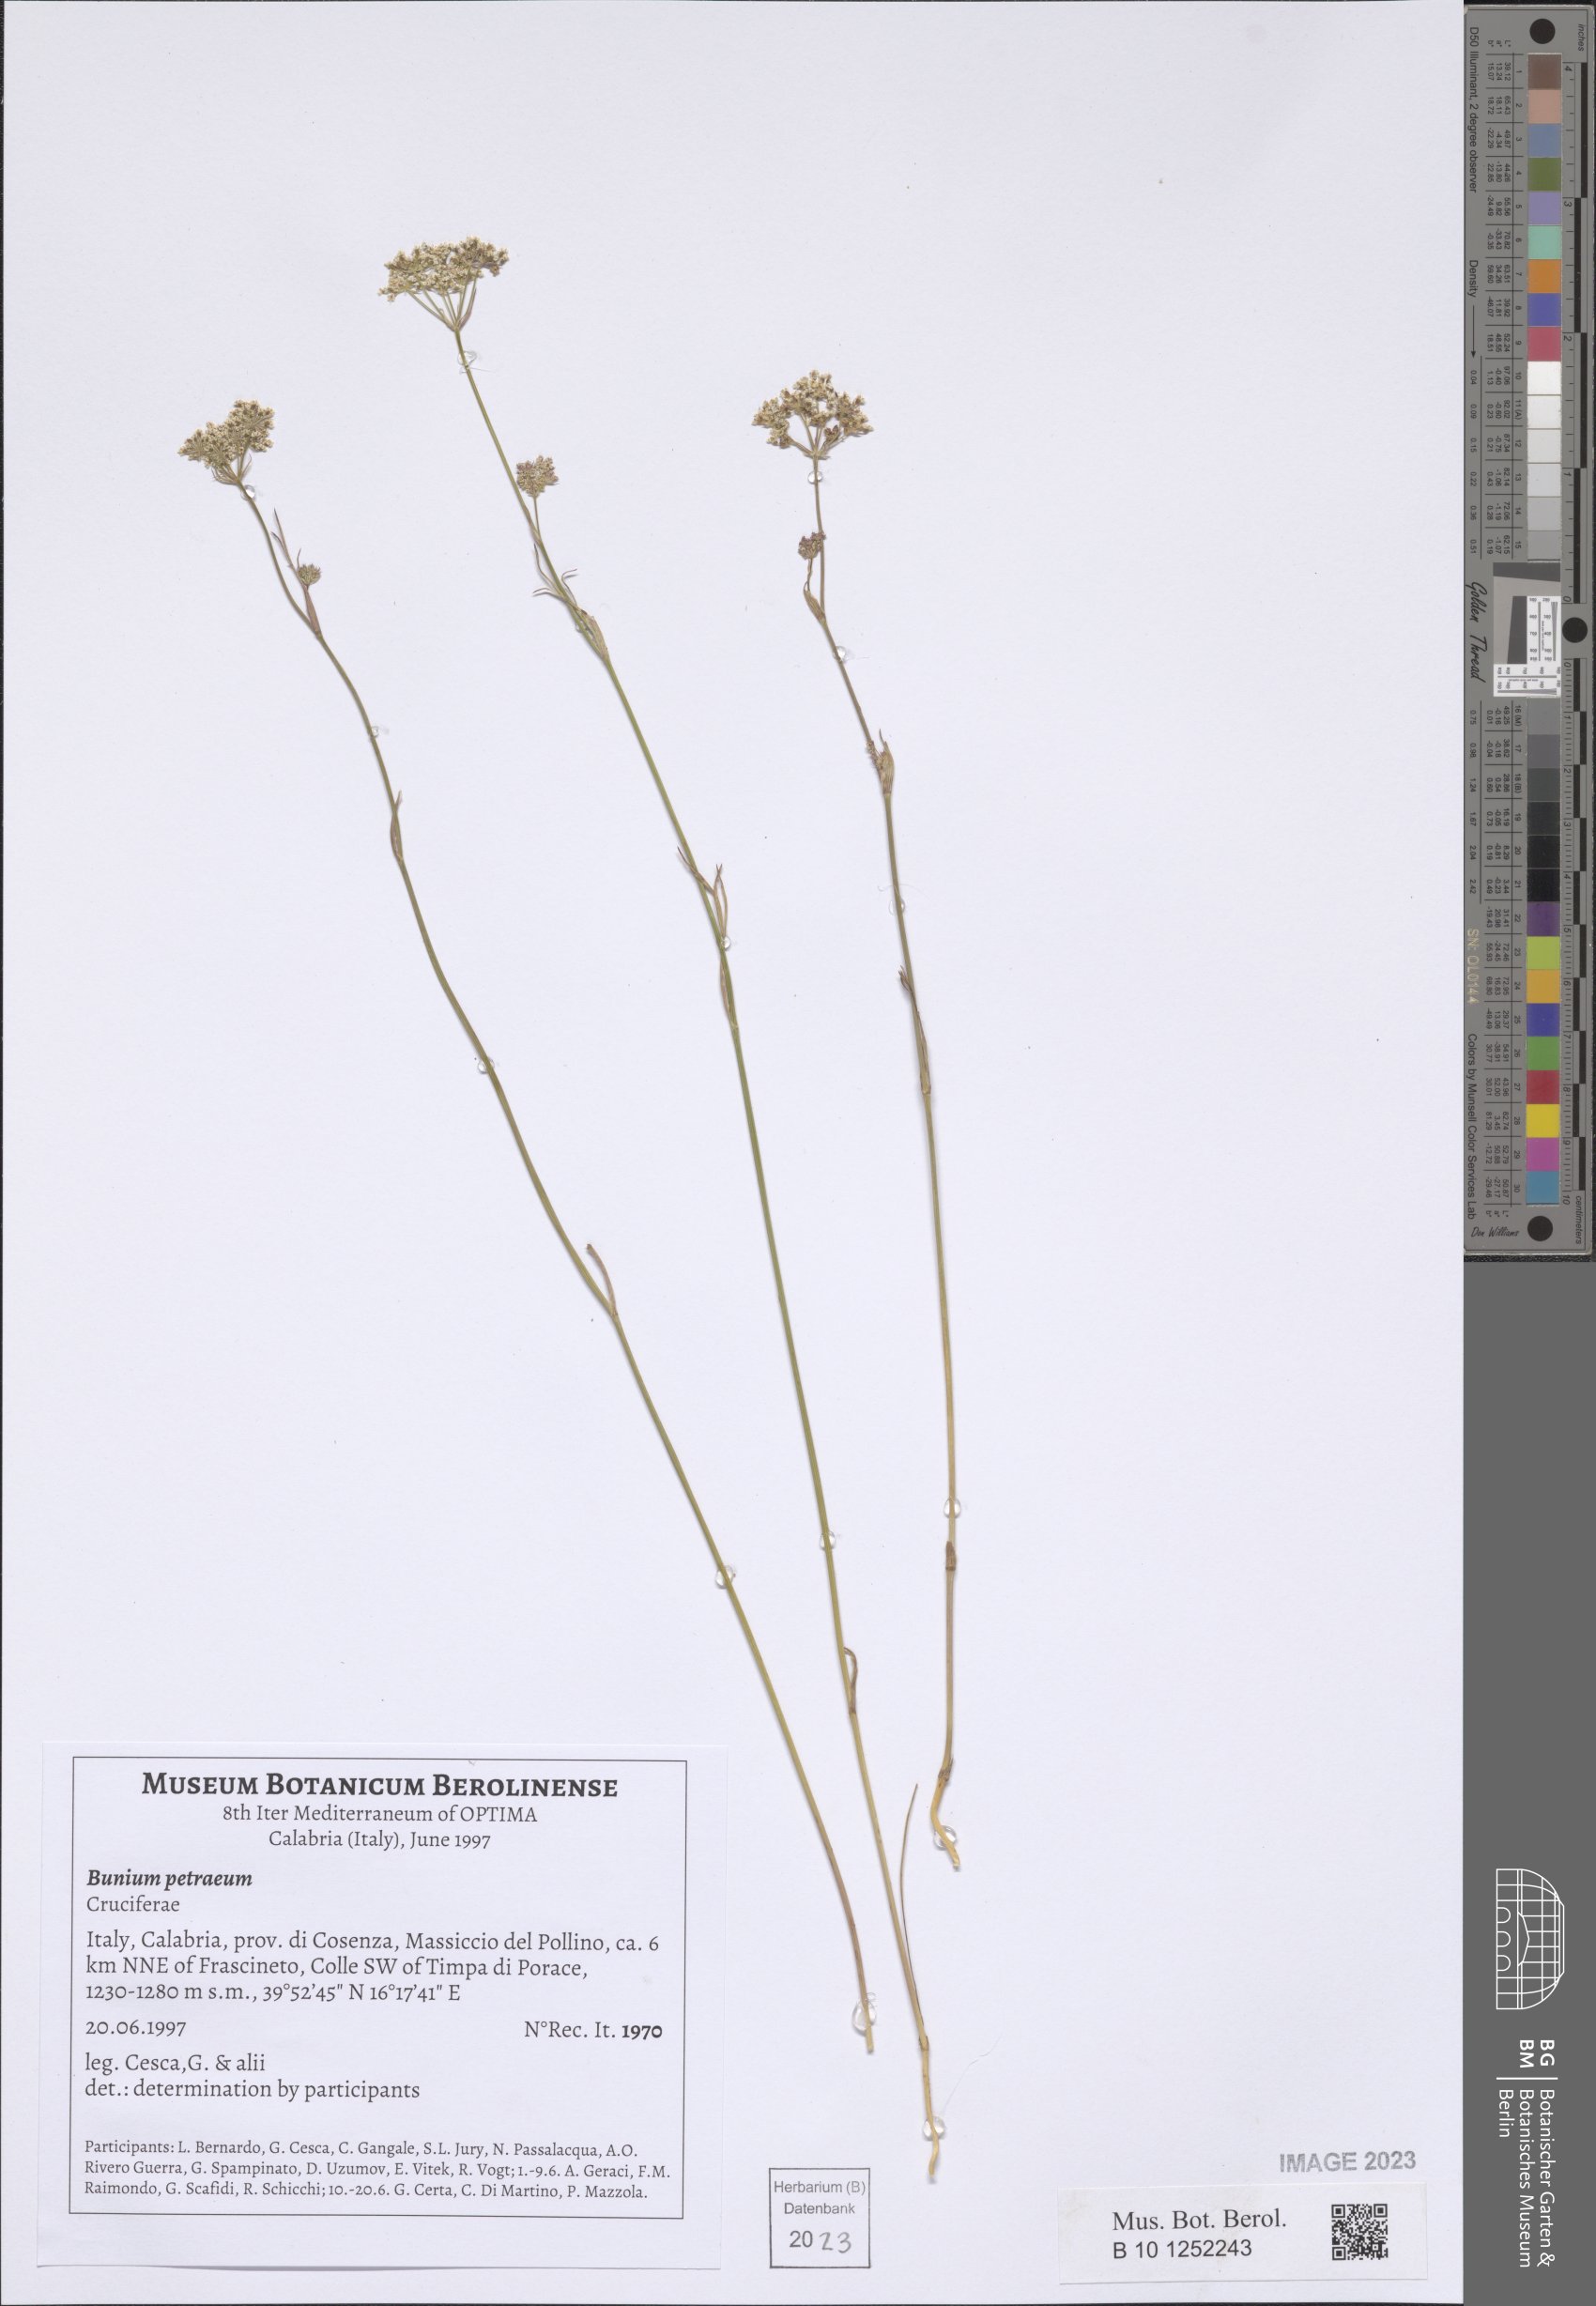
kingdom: Plantae
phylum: Tracheophyta
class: Magnoliopsida
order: Apiales
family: Apiaceae
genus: Bunium
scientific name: Bunium alpinum
